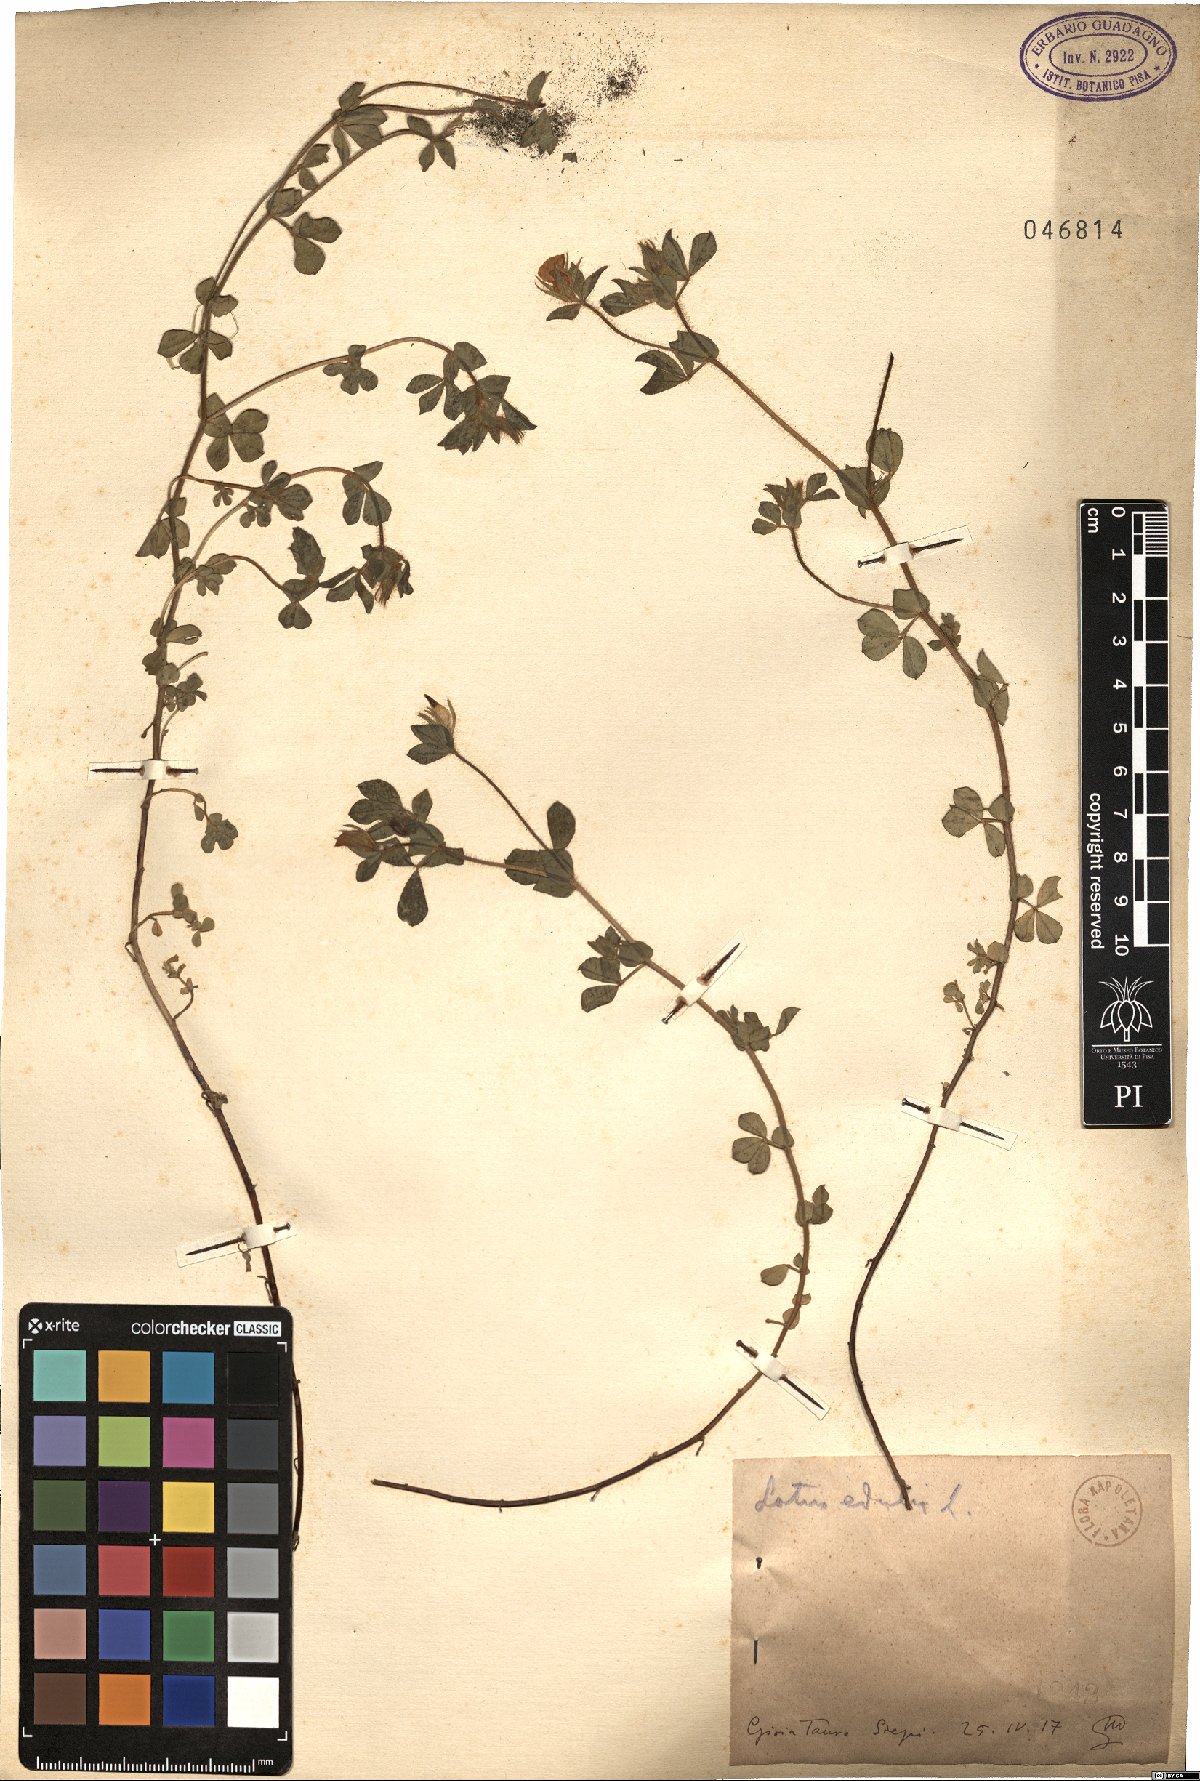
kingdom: Plantae
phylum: Tracheophyta
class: Magnoliopsida
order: Fabales
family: Fabaceae
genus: Lotus
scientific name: Lotus edulis
